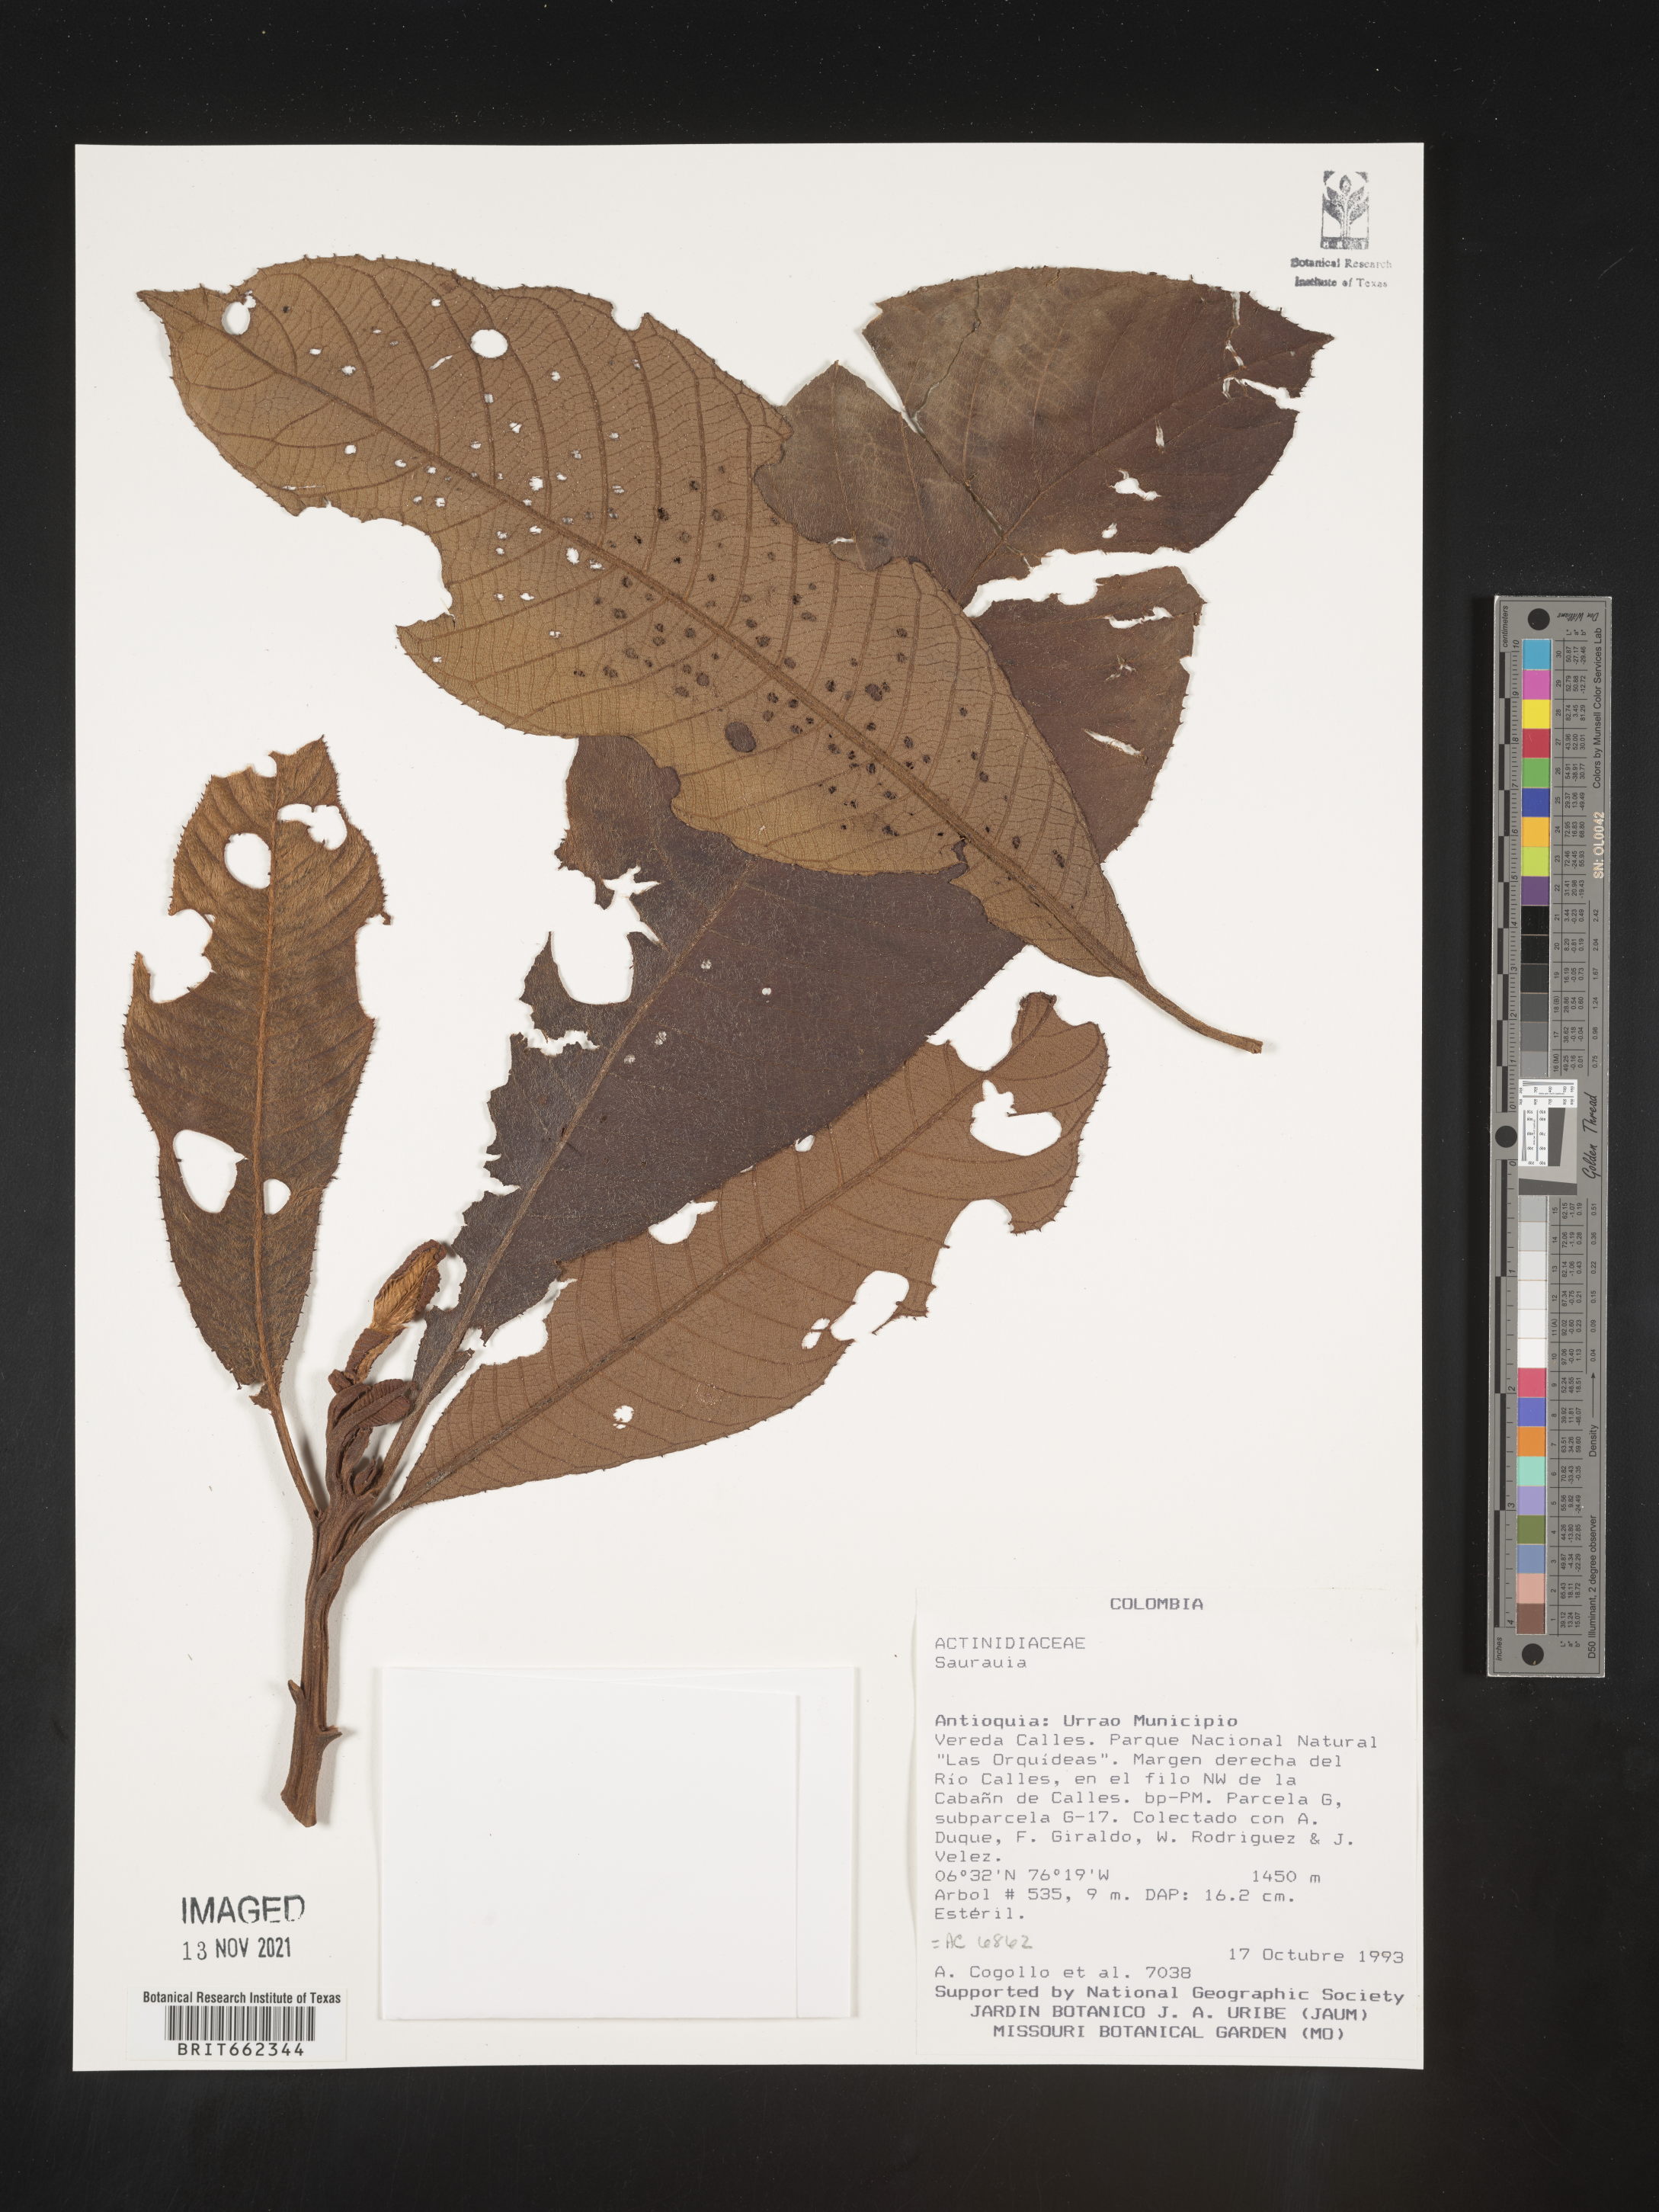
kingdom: Plantae
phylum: Tracheophyta
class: Magnoliopsida
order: Ericales
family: Actinidiaceae
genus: Saurauia
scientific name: Saurauia
